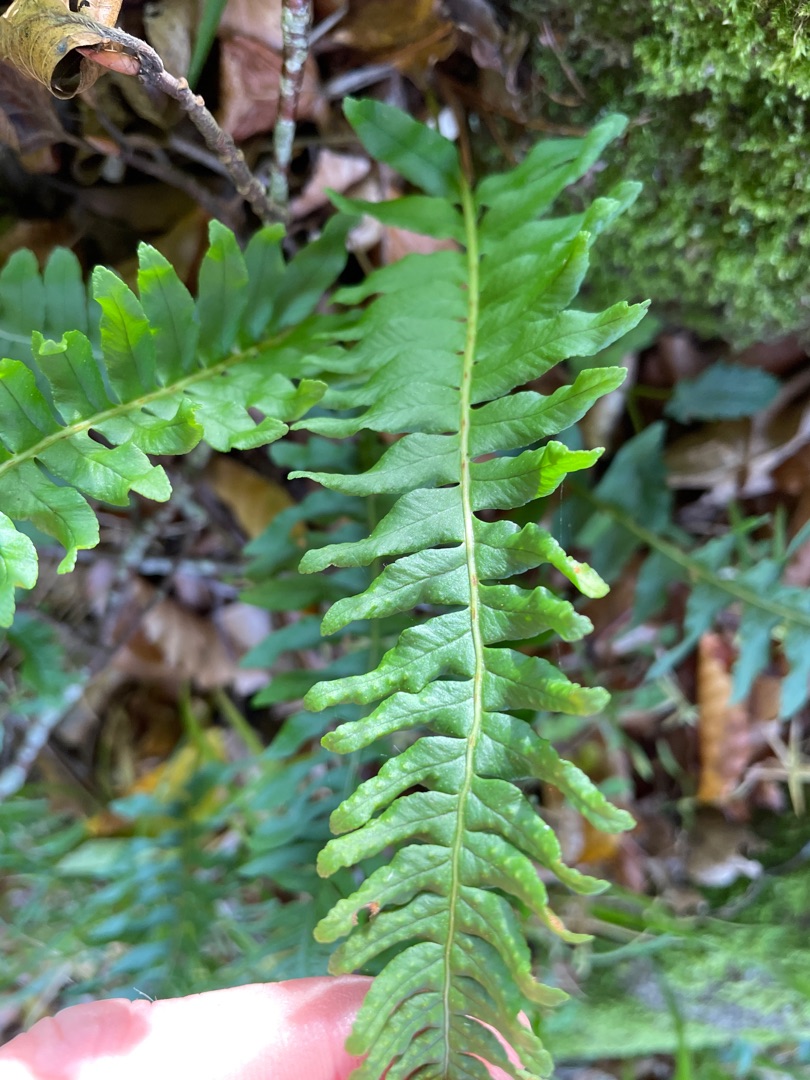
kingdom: Plantae
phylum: Tracheophyta
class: Polypodiopsida
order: Polypodiales
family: Polypodiaceae
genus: Polypodium
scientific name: Polypodium vulgare
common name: Almindelig engelsød
